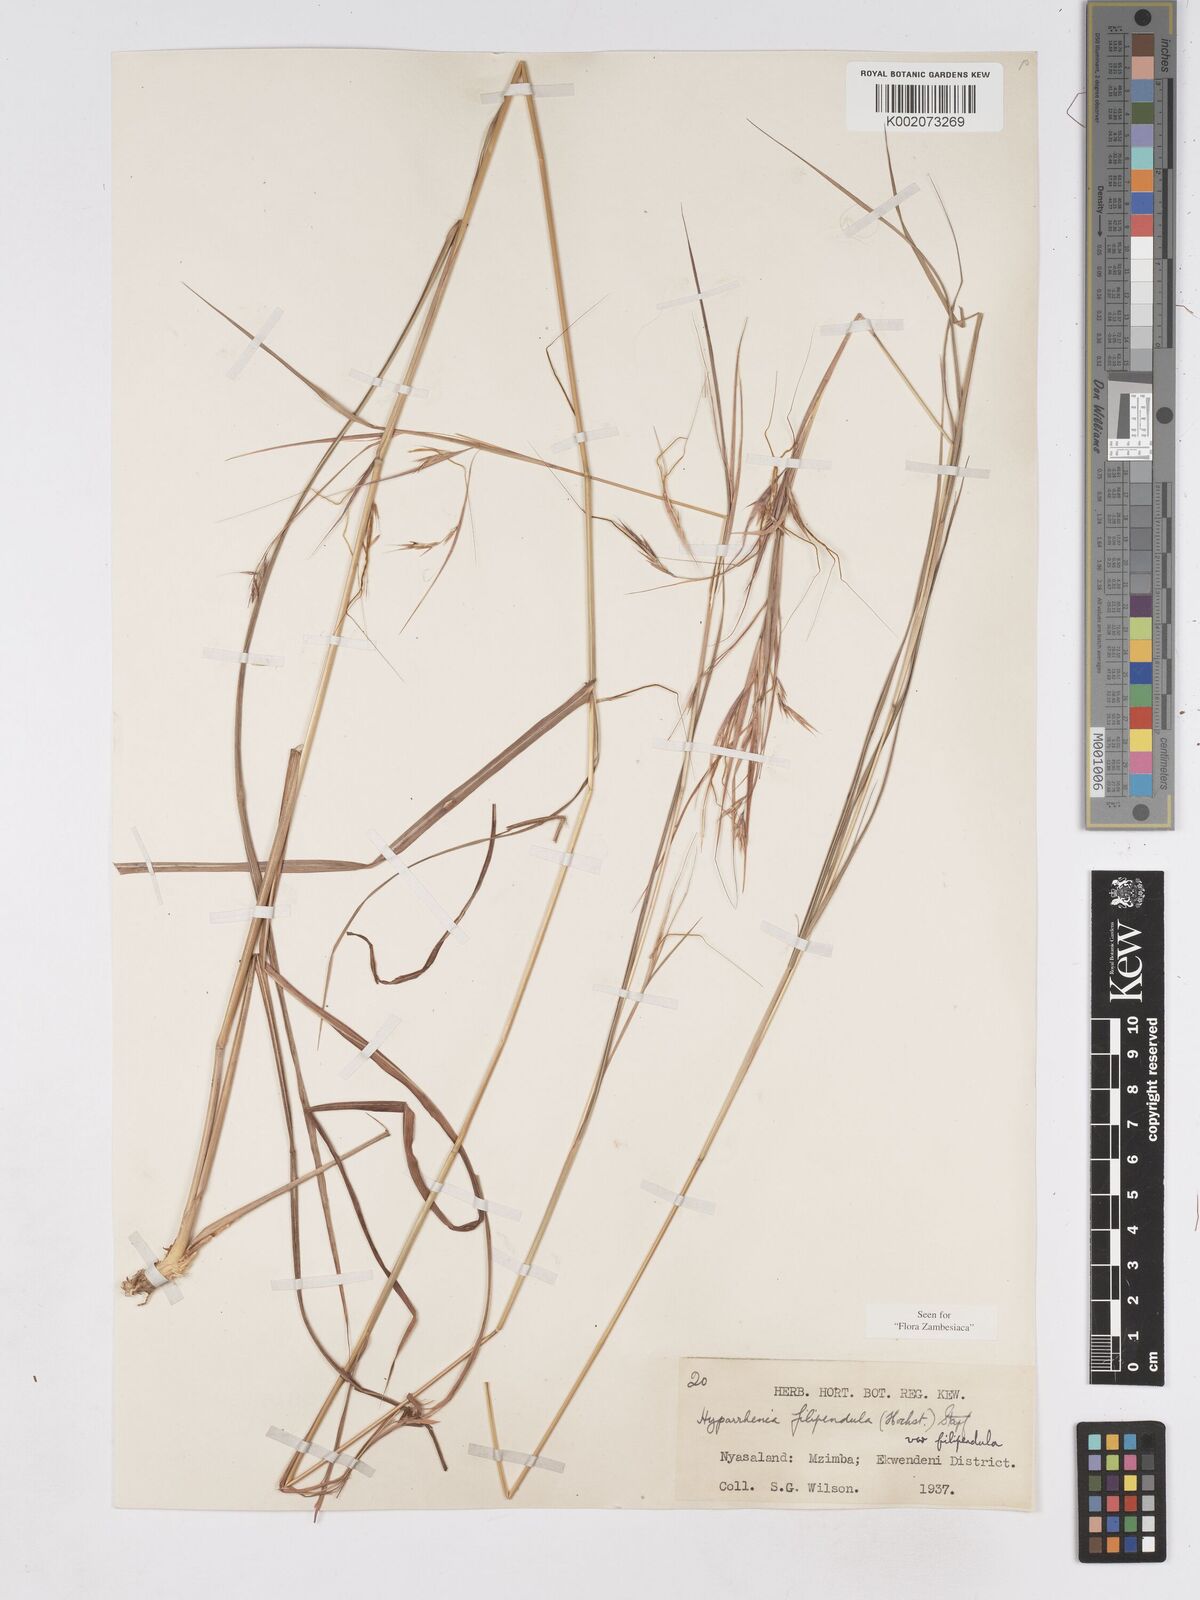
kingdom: Plantae
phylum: Tracheophyta
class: Liliopsida
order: Poales
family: Poaceae
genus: Hyparrhenia
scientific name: Hyparrhenia filipendula
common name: Tambookie grass
